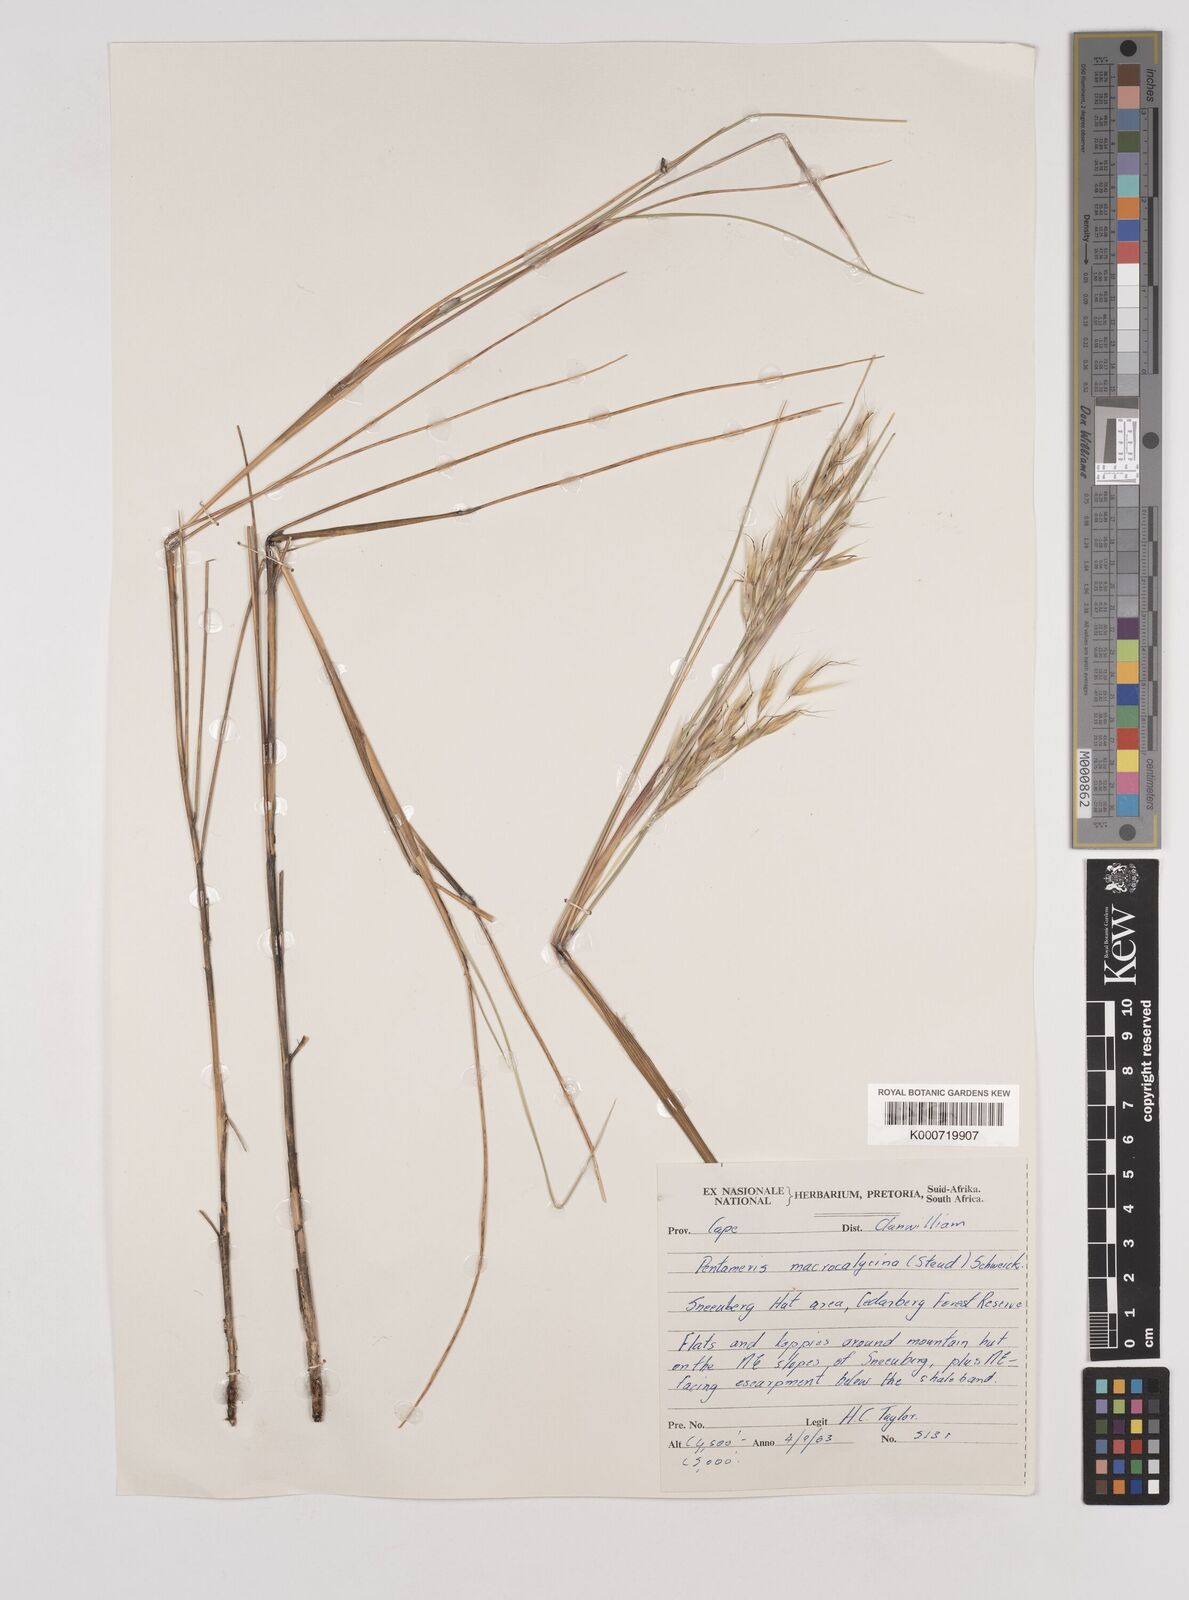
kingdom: Plantae
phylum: Tracheophyta
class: Liliopsida
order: Poales
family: Poaceae
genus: Pentameris
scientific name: Pentameris macrocalycina
